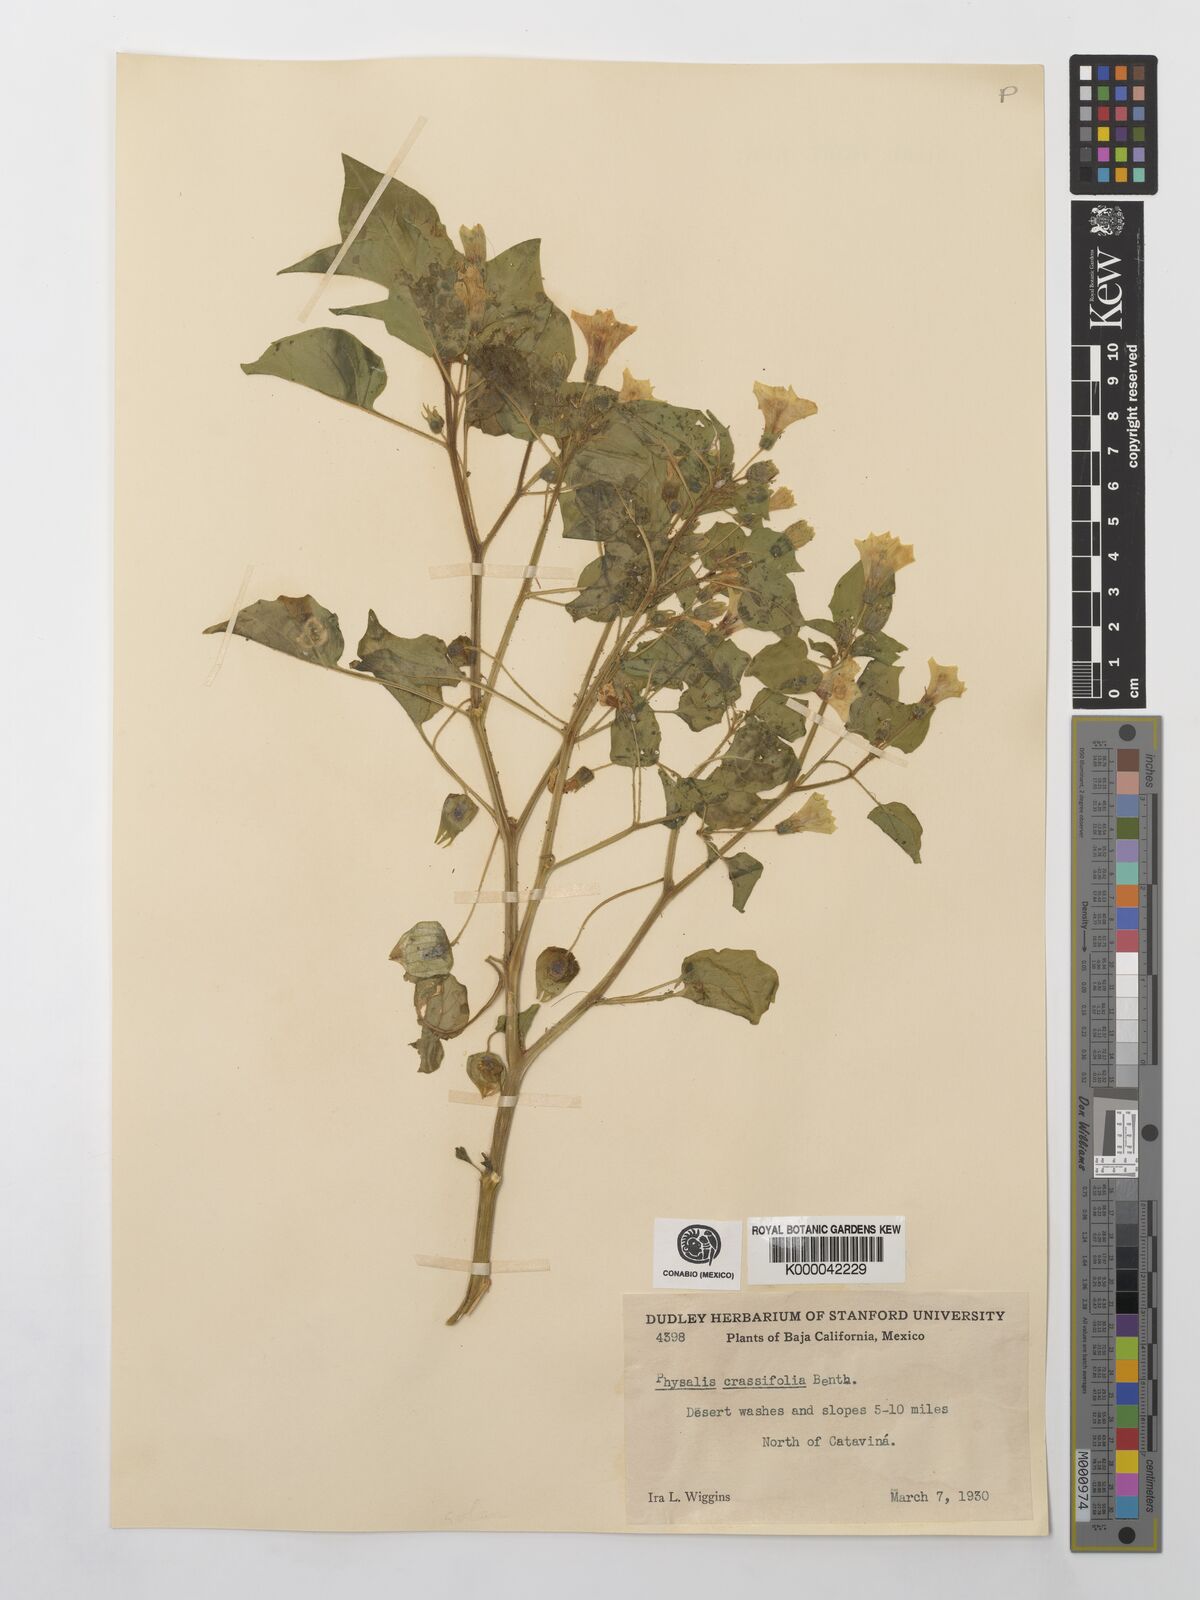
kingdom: Plantae
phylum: Tracheophyta
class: Magnoliopsida
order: Solanales
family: Solanaceae
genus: Physalis
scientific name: Physalis crassifolia
